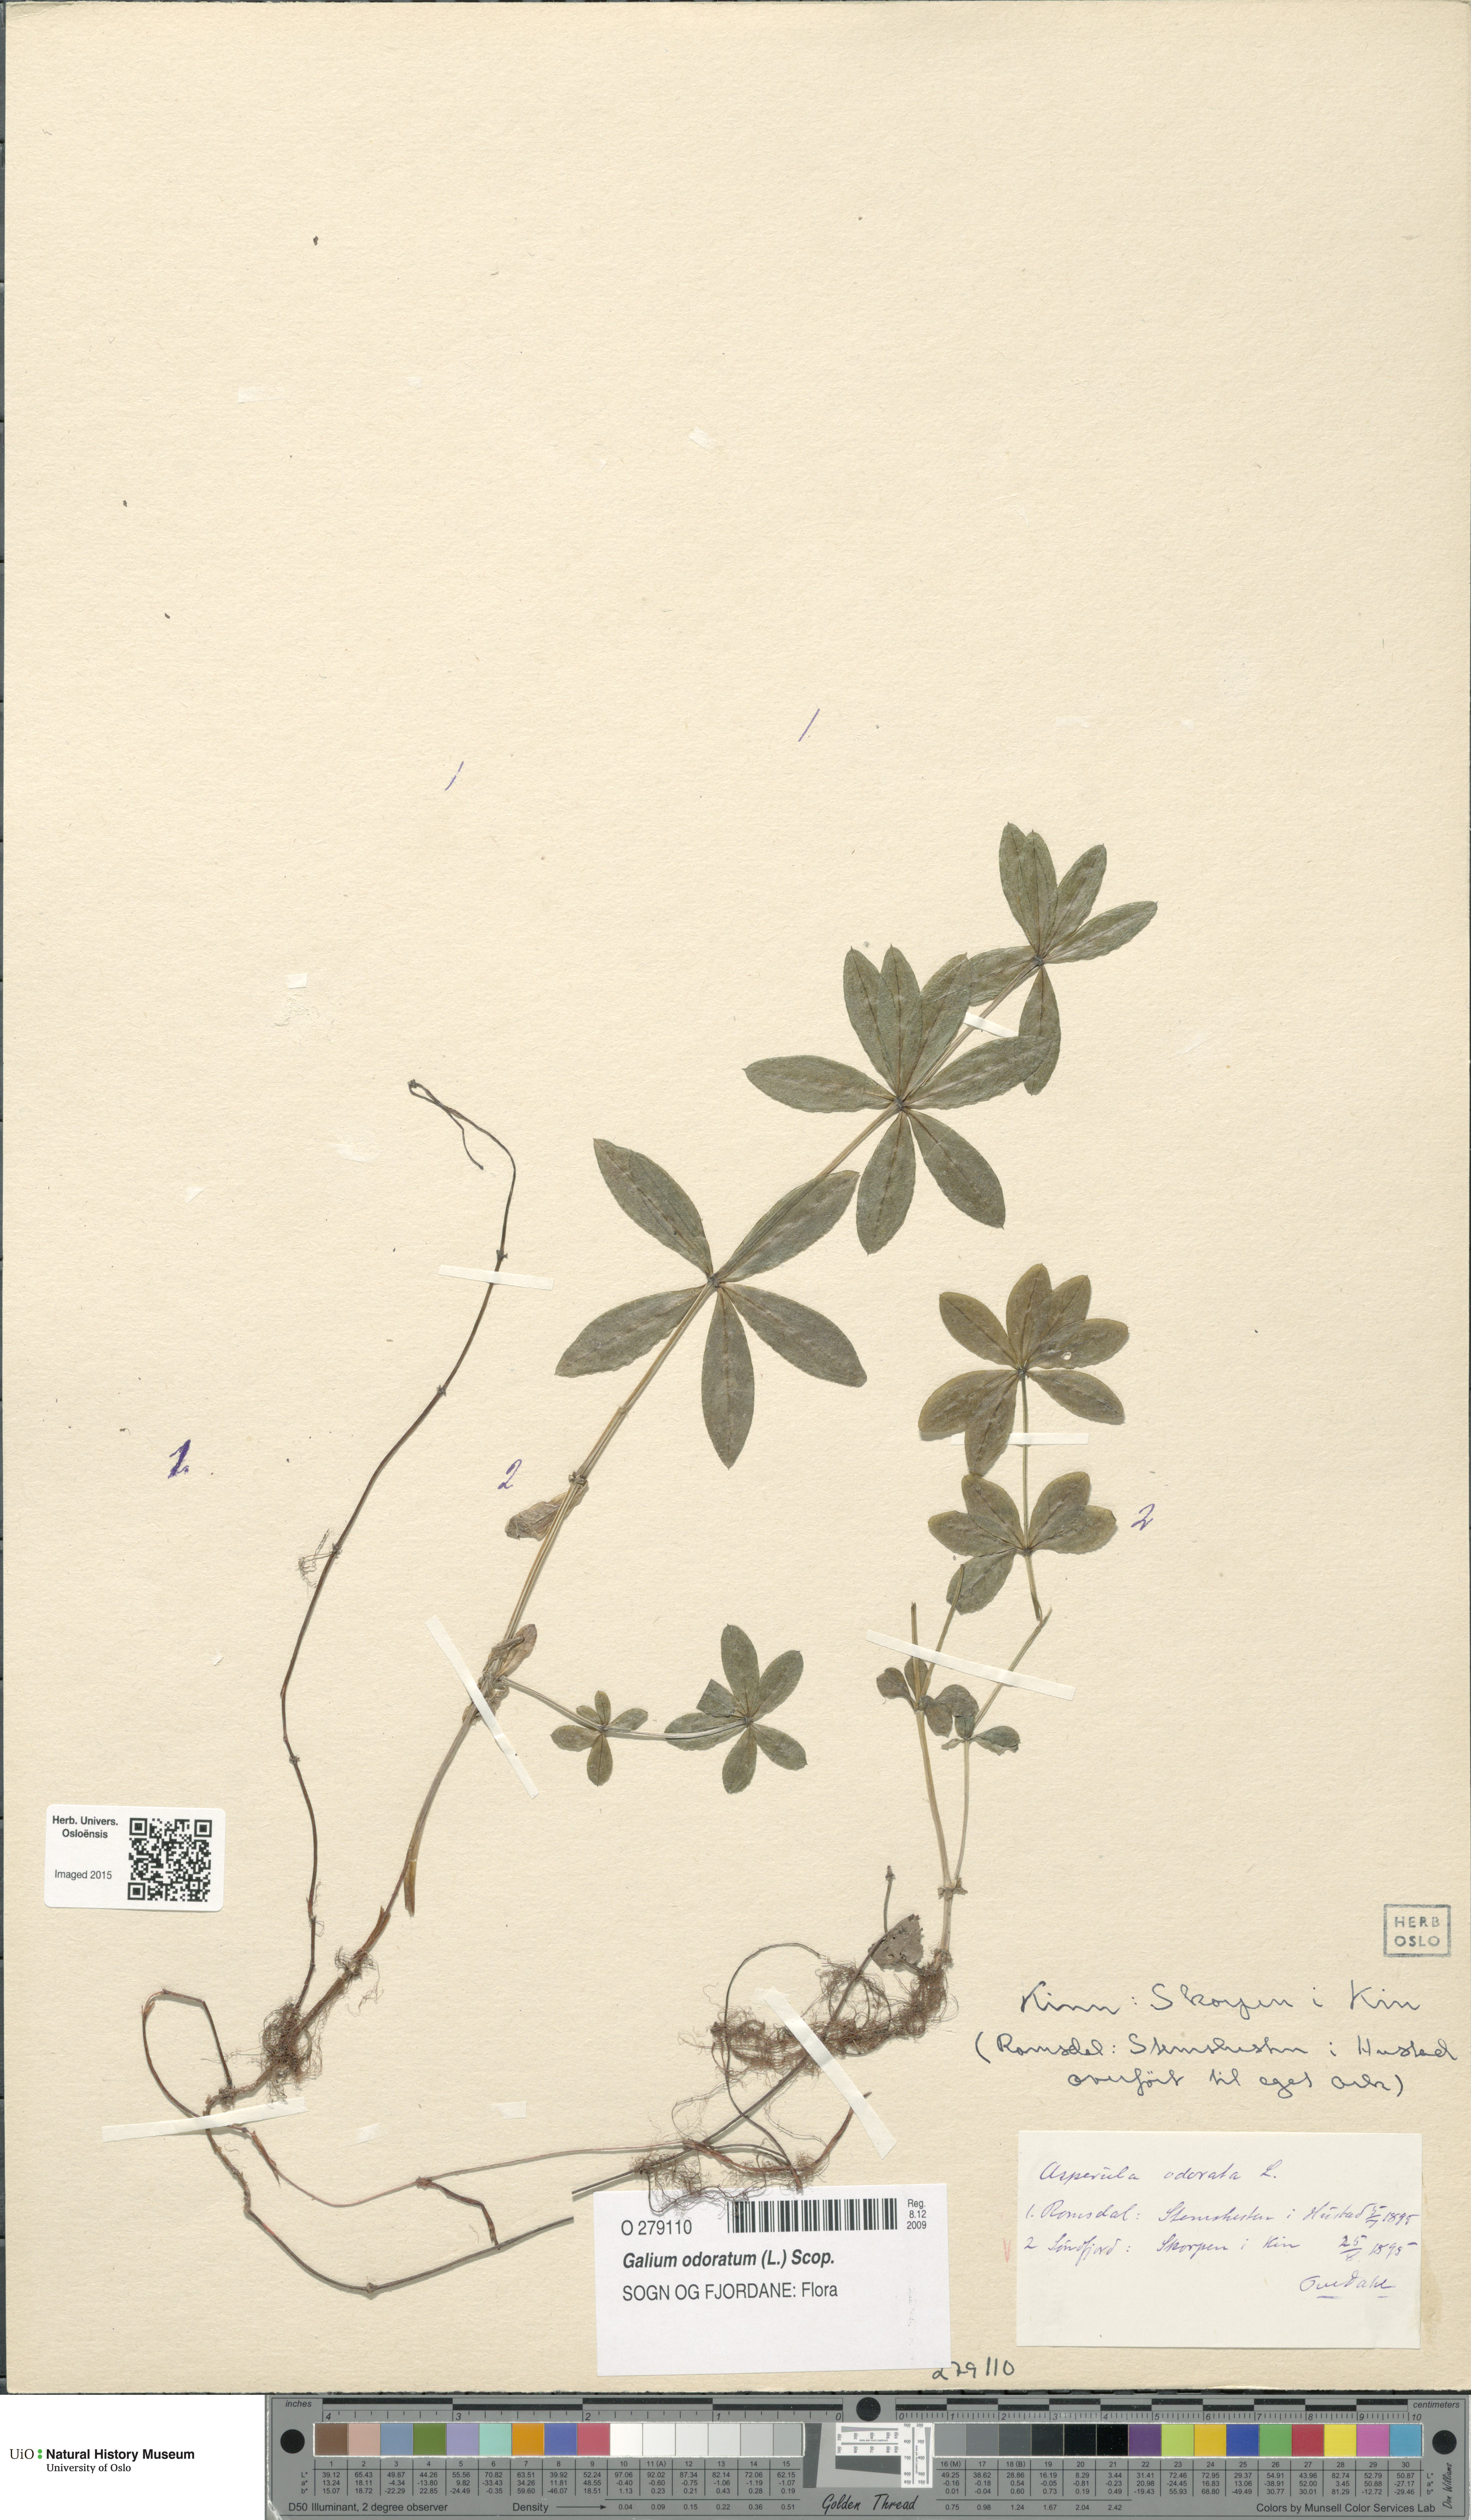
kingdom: Plantae
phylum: Tracheophyta
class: Magnoliopsida
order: Gentianales
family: Rubiaceae
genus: Galium
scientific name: Galium odoratum
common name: Sweet woodruff
